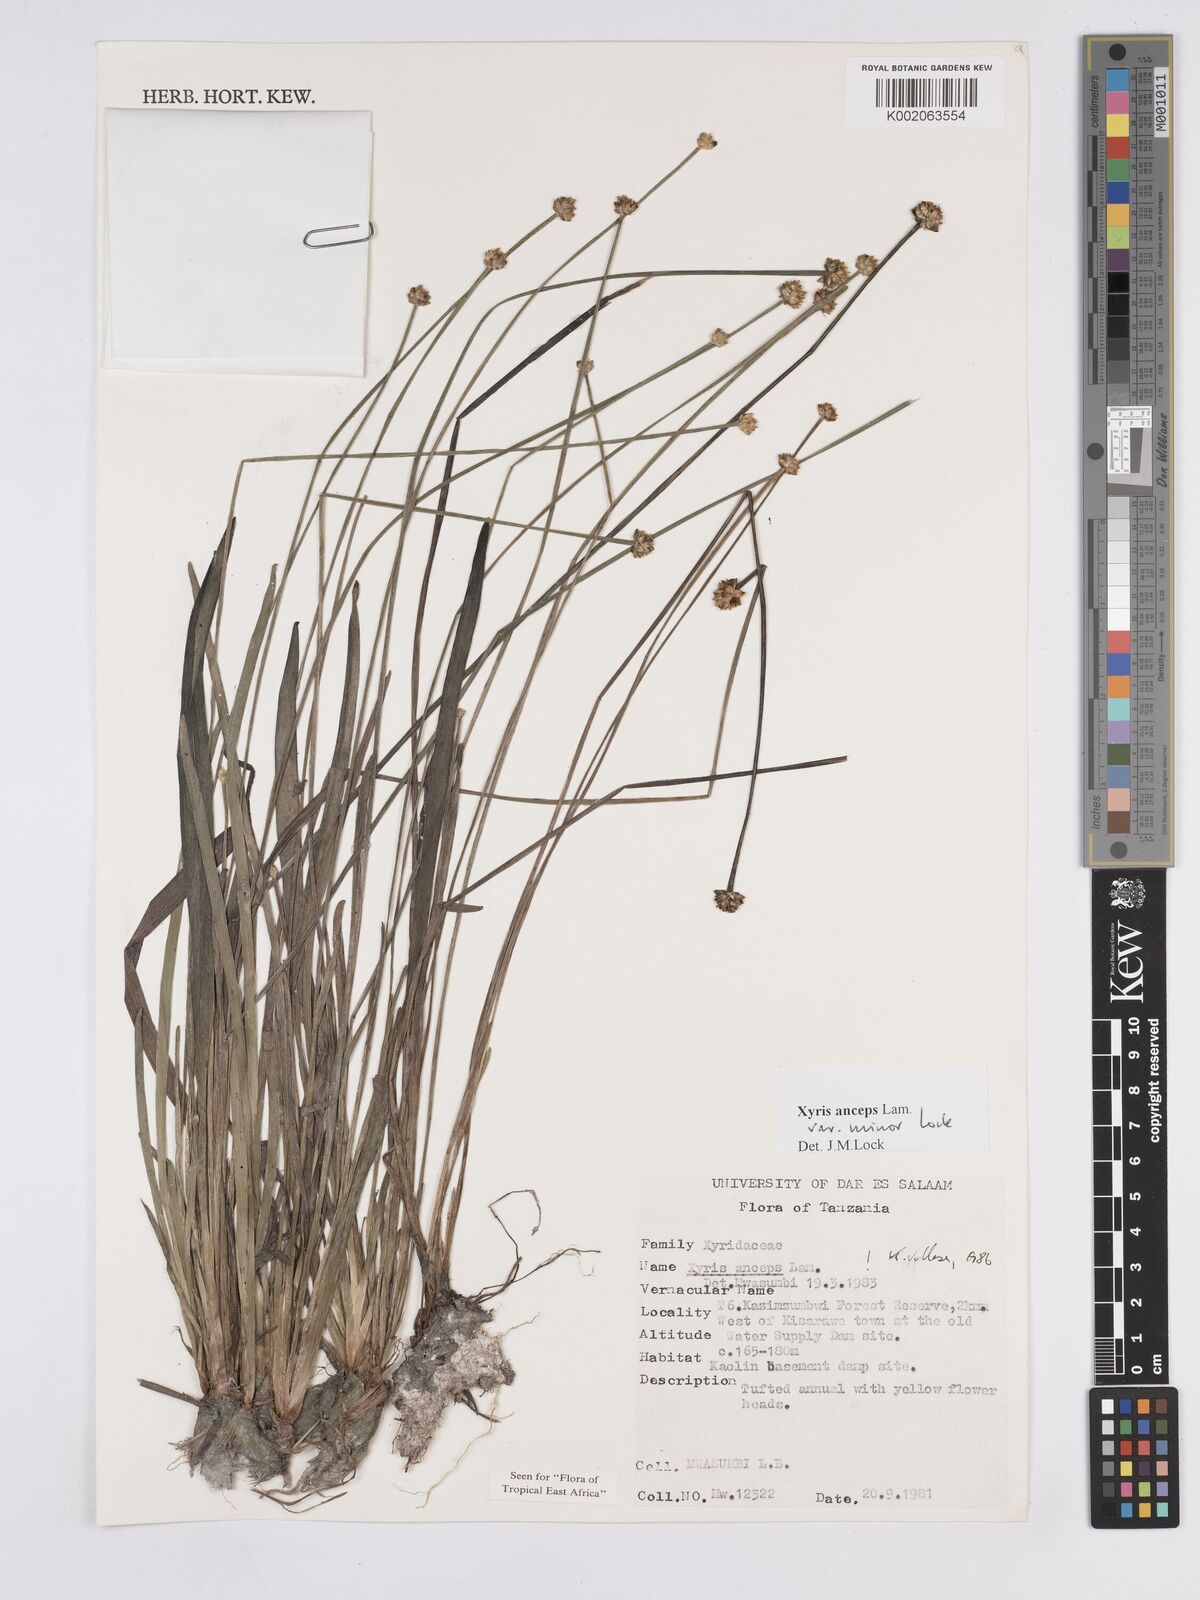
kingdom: Plantae
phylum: Tracheophyta
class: Liliopsida
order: Poales
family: Xyridaceae
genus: Xyris
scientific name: Xyris anceps
